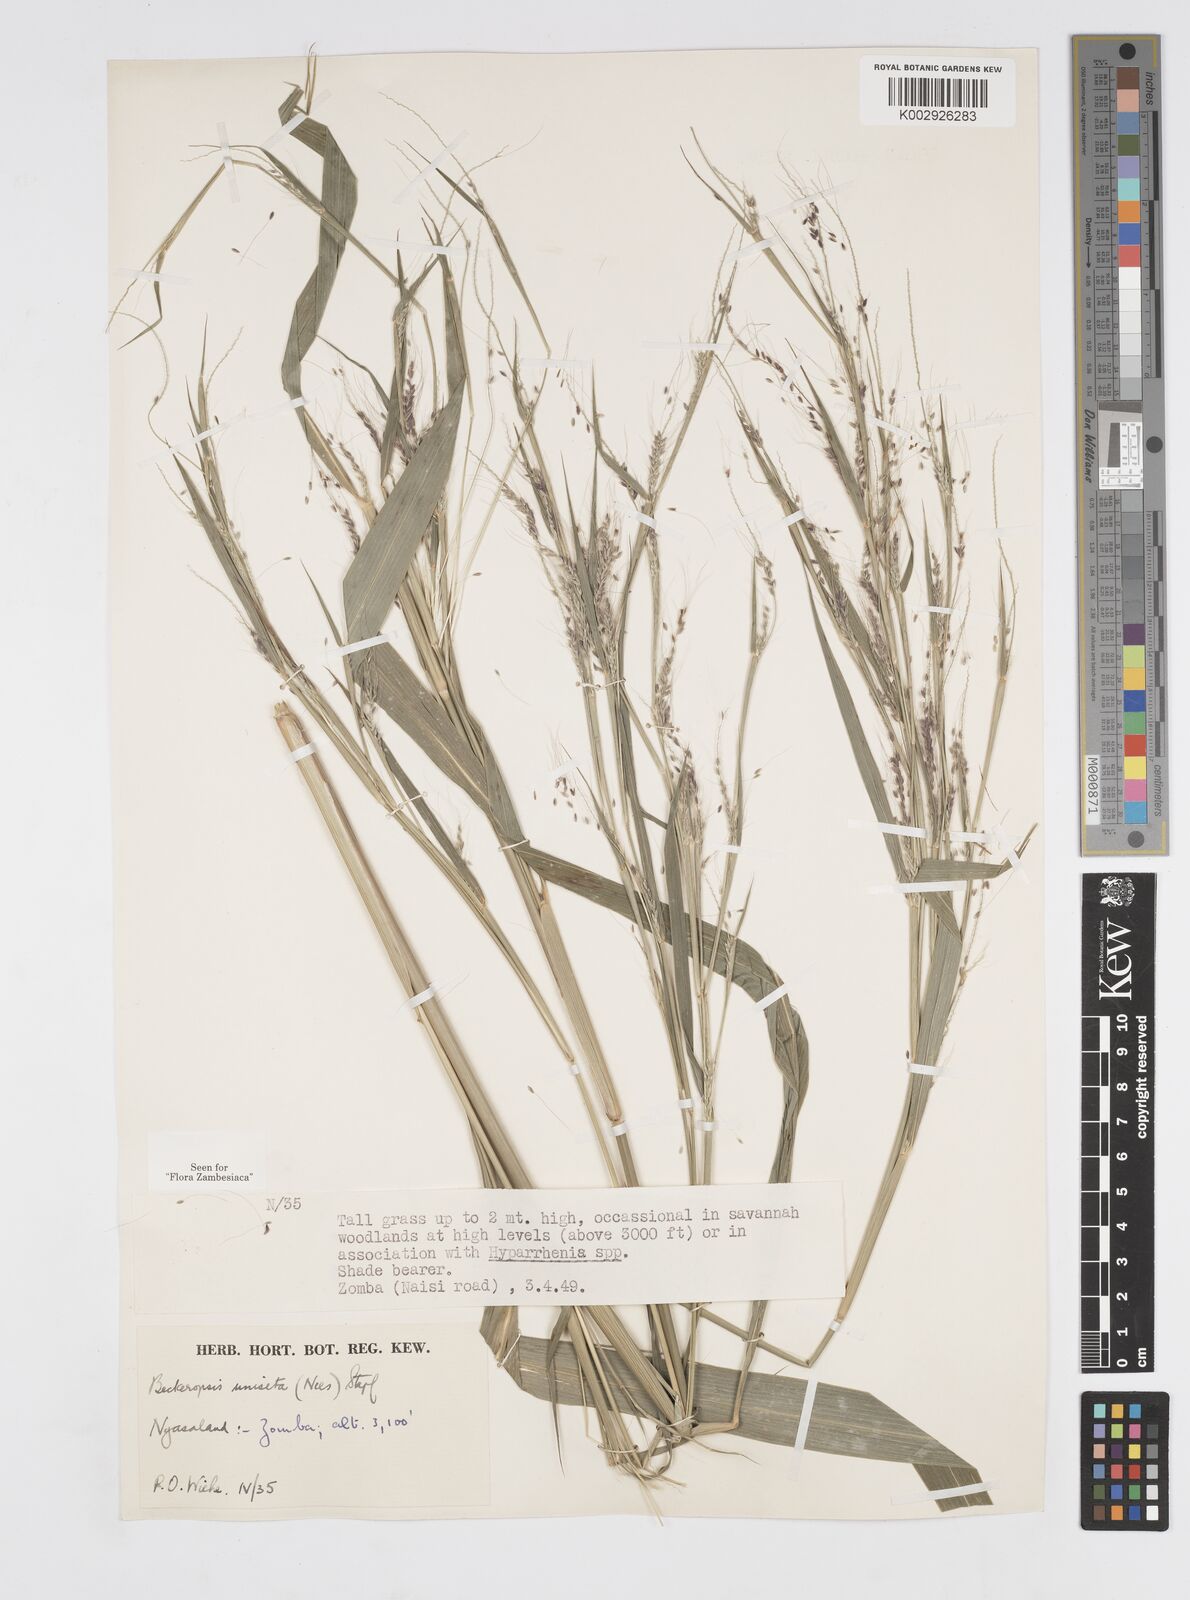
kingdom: Plantae
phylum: Tracheophyta
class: Liliopsida
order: Poales
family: Poaceae
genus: Cenchrus
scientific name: Cenchrus unisetus
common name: Natal grass
